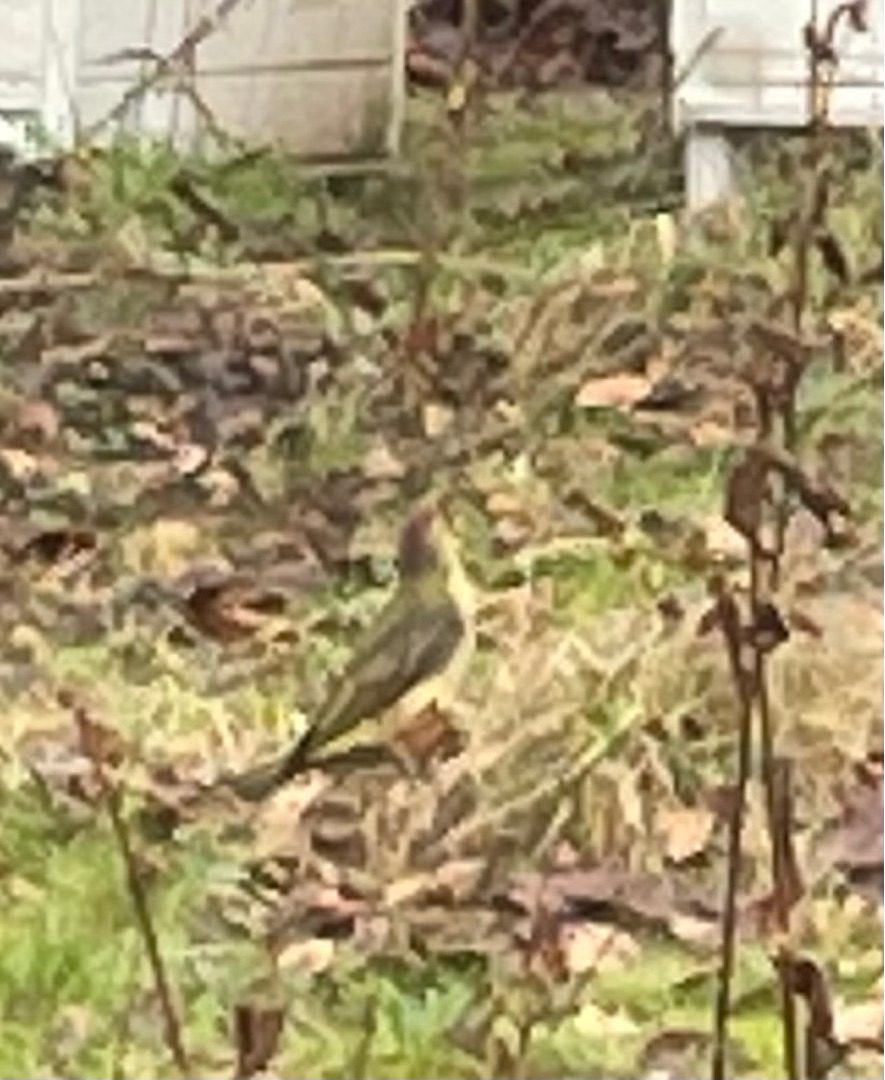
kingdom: Animalia
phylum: Chordata
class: Aves
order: Piciformes
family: Picidae
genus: Picus
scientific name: Picus viridis
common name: Grønspætte
